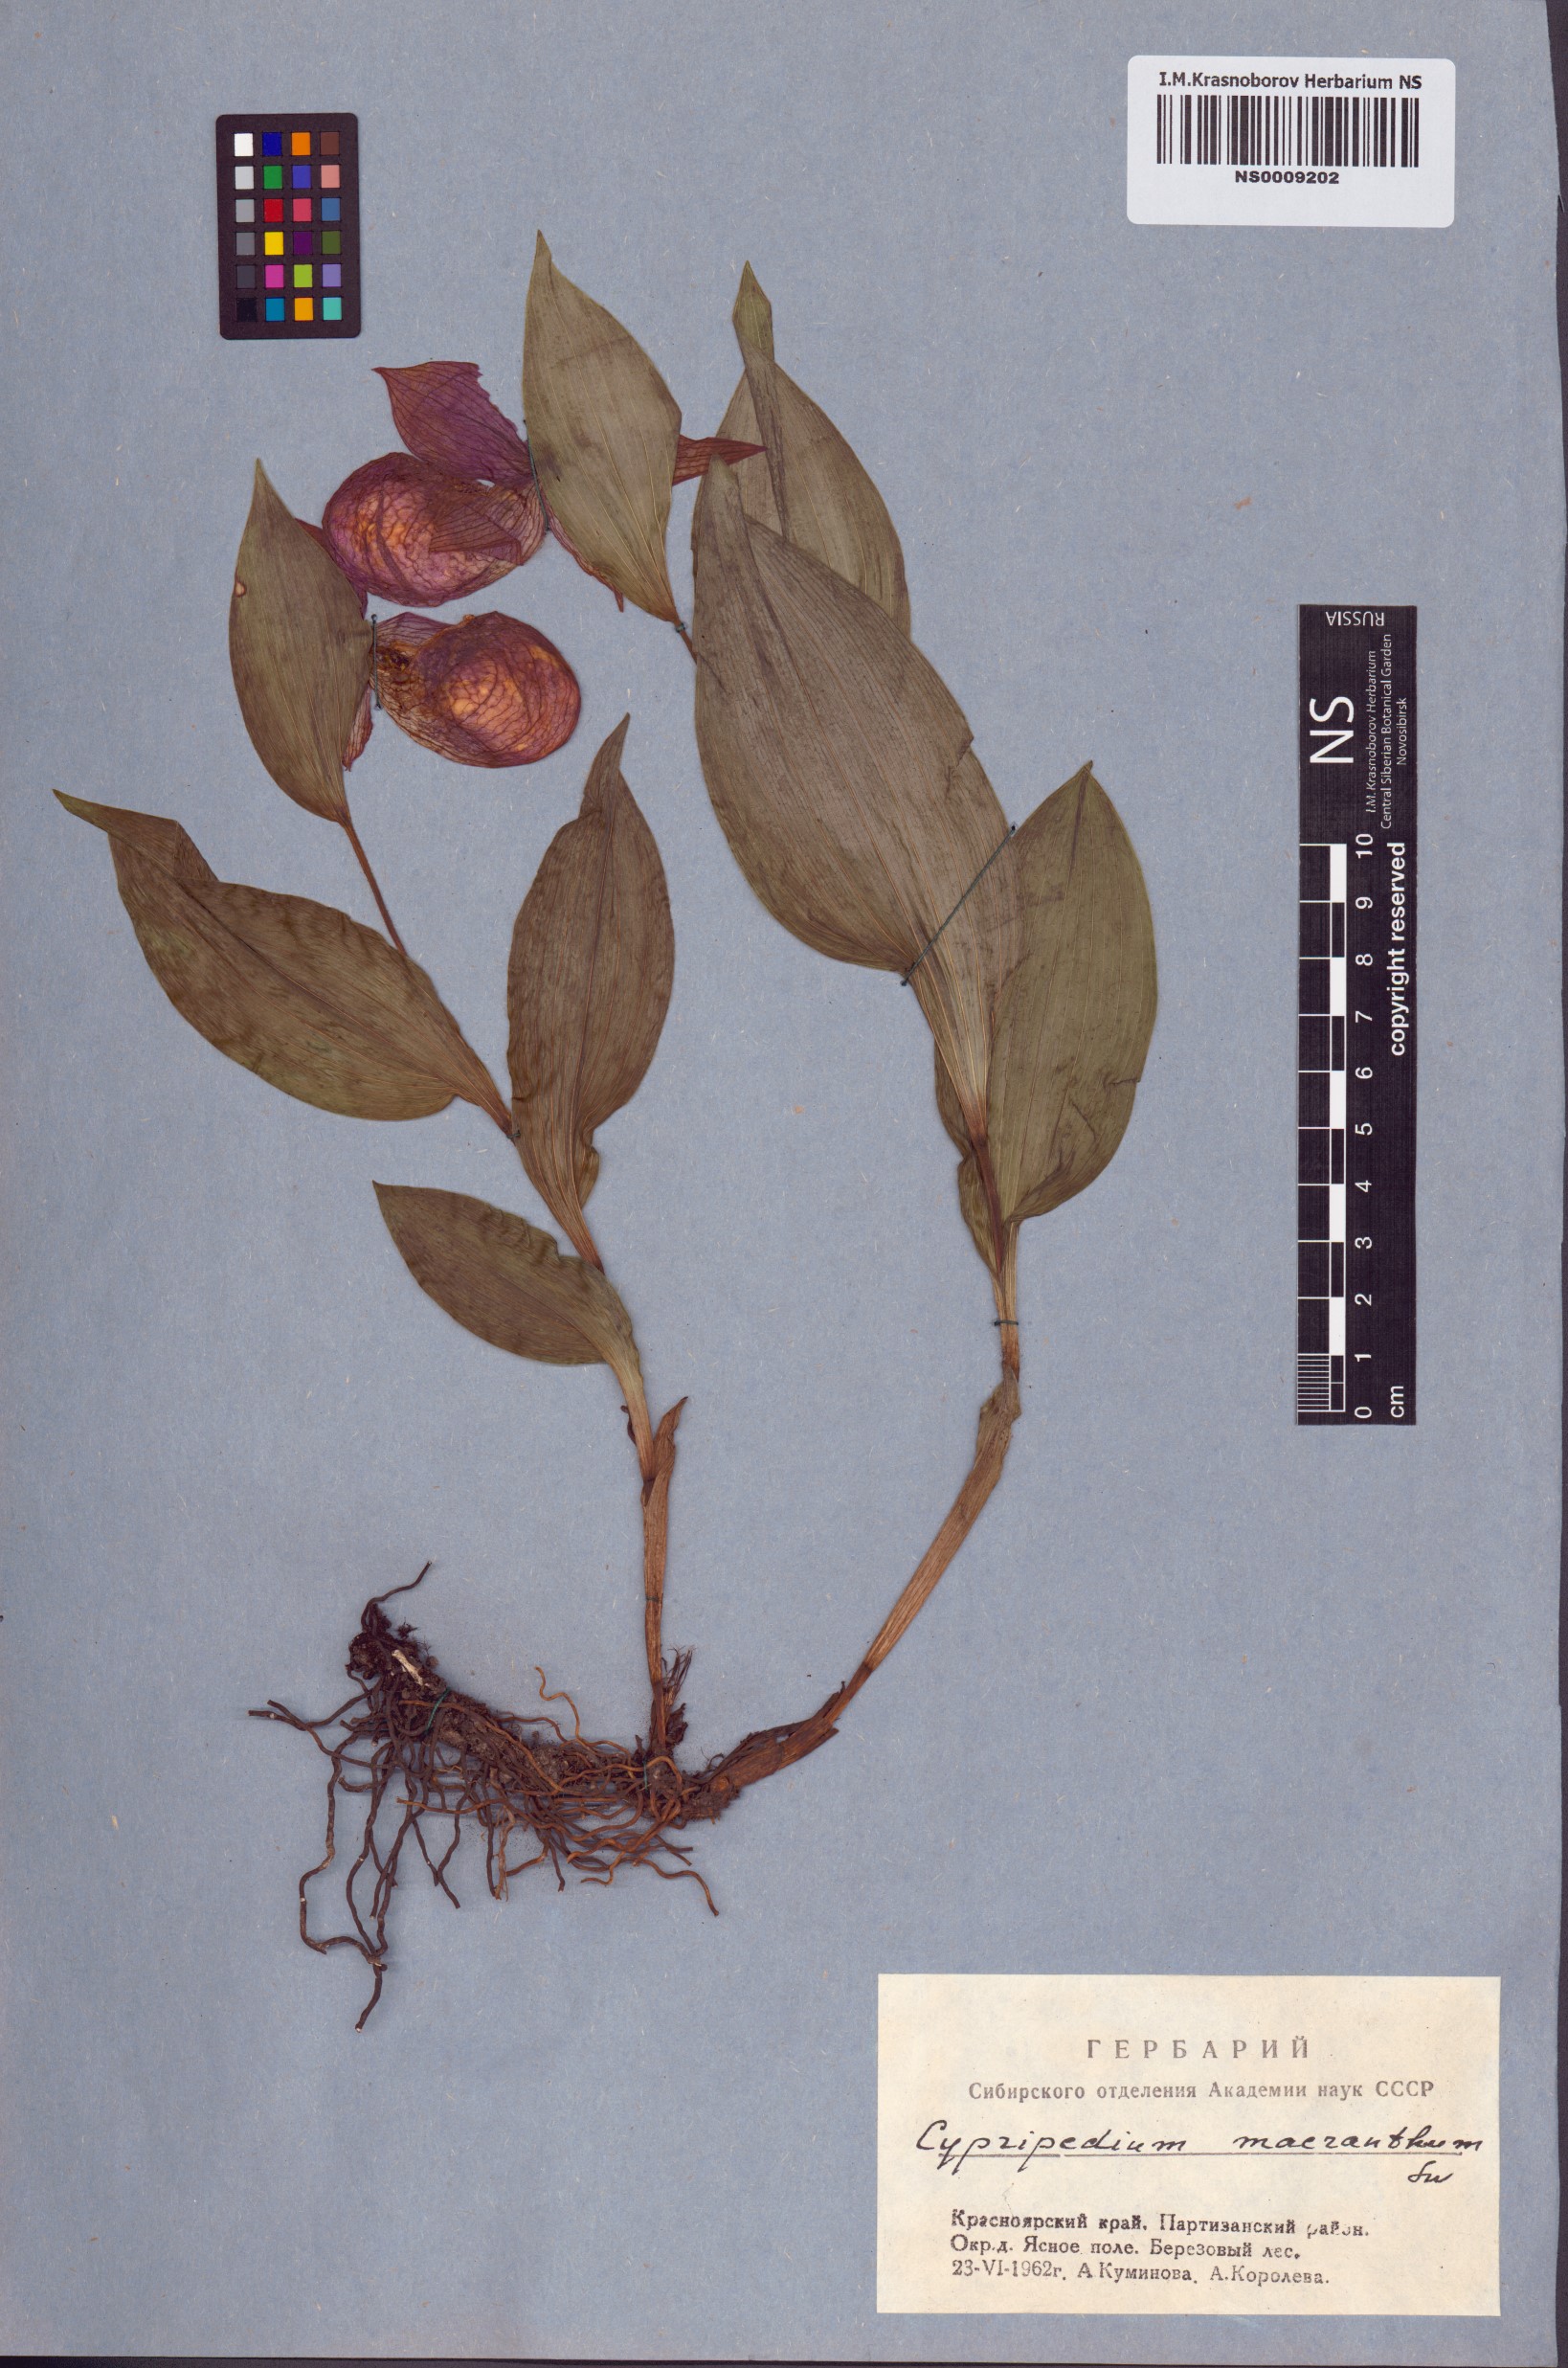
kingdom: Plantae
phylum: Tracheophyta
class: Liliopsida
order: Asparagales
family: Orchidaceae
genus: Cypripedium
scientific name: Cypripedium macranthos
